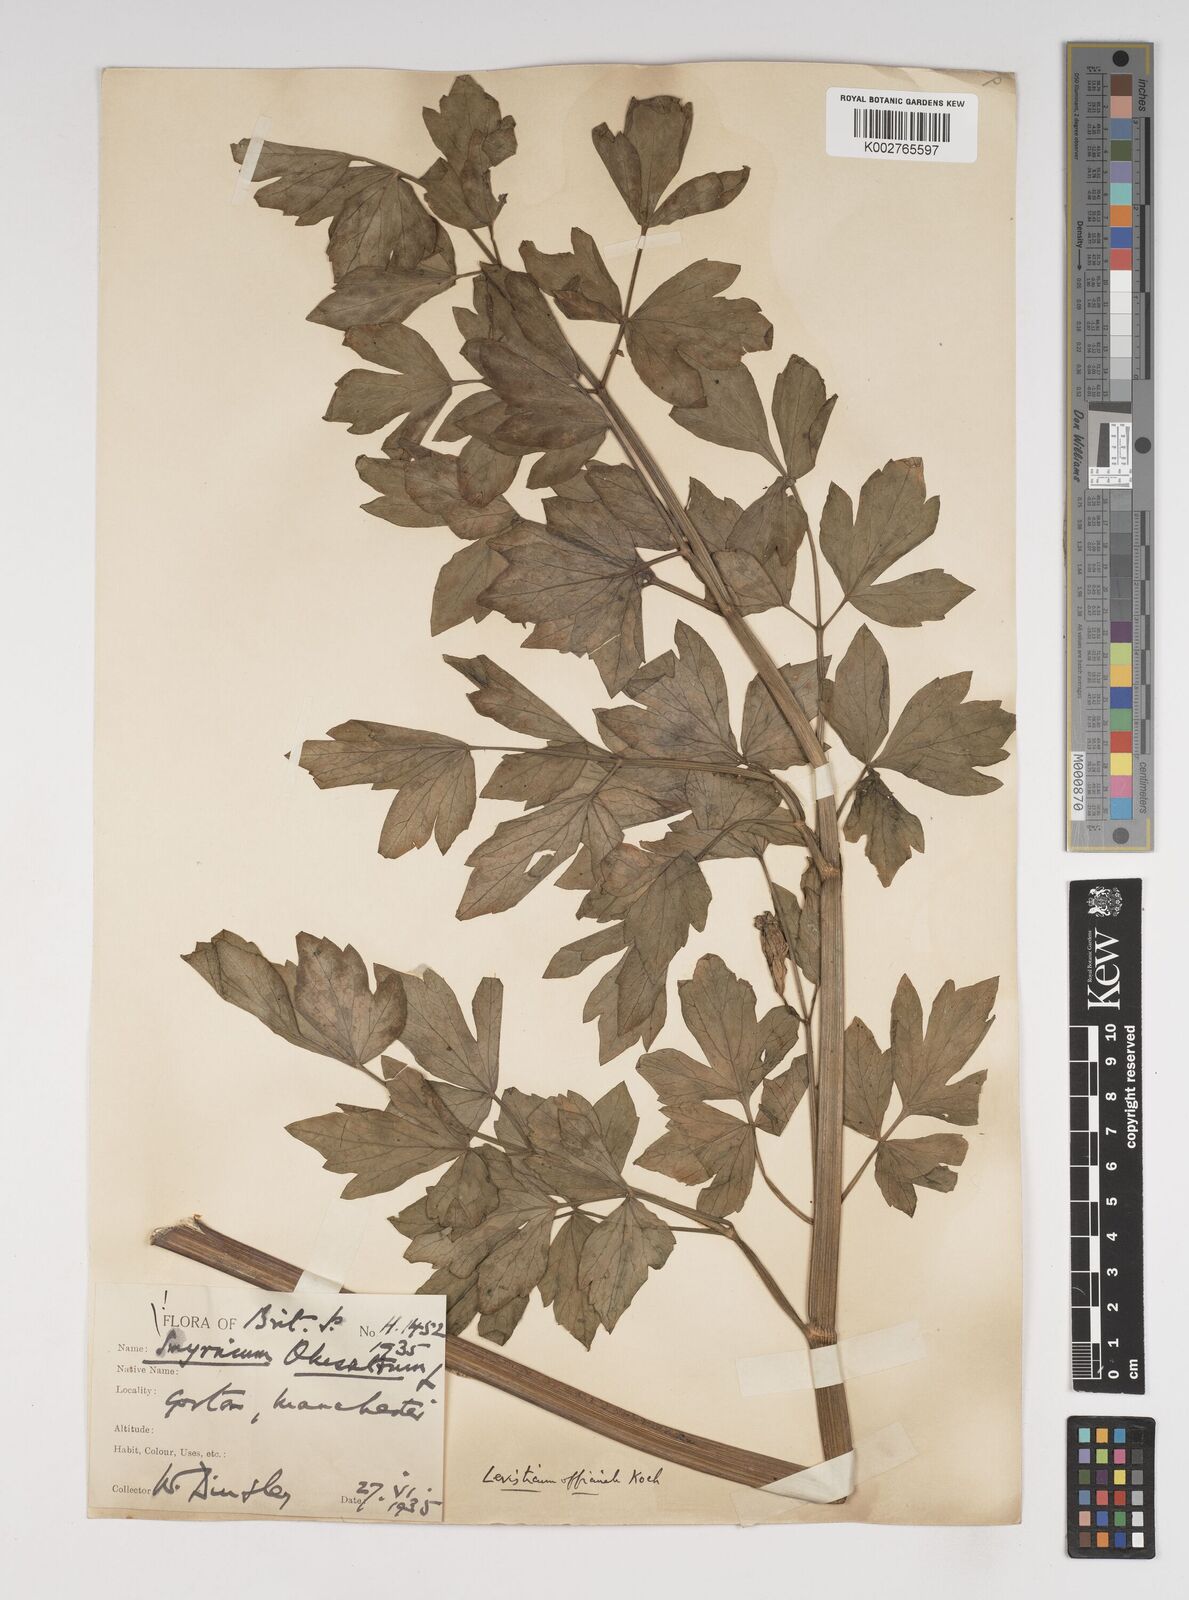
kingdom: Plantae
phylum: Tracheophyta
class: Magnoliopsida
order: Apiales
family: Apiaceae
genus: Levisticum
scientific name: Levisticum officinale
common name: Lovage
